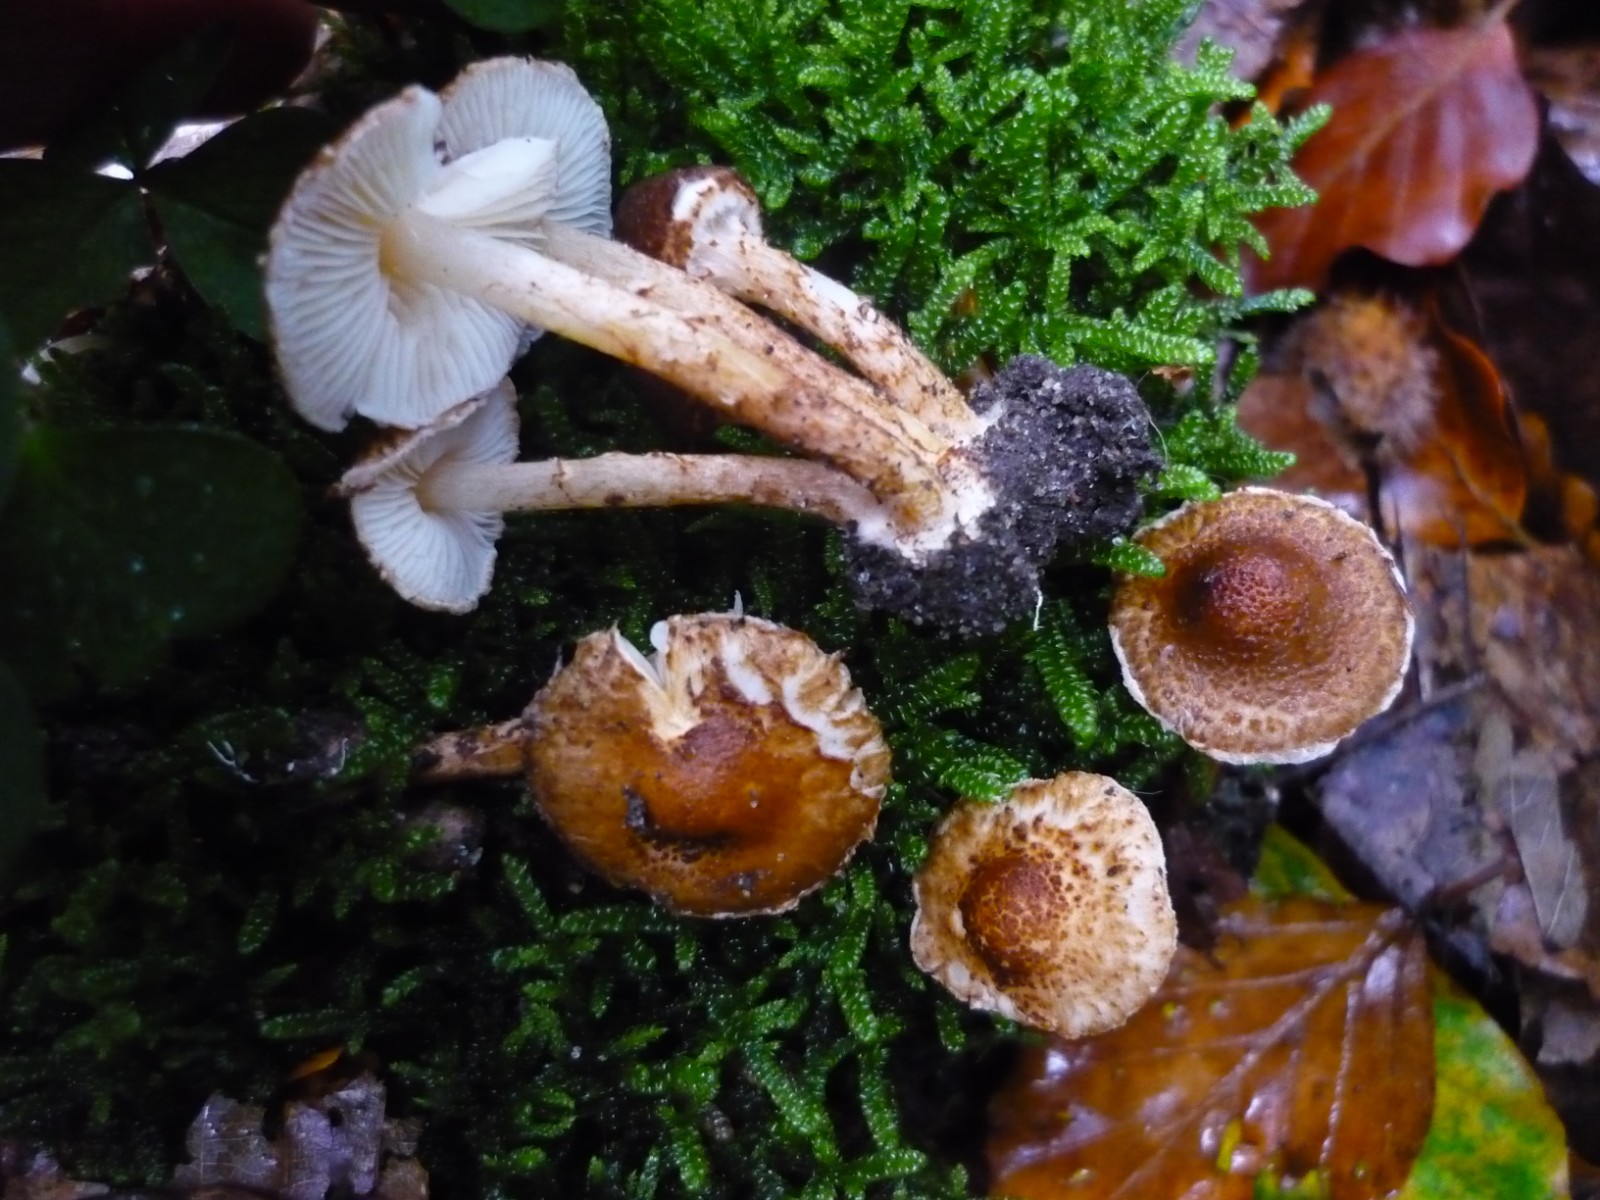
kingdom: Fungi
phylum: Basidiomycota
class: Agaricomycetes
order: Agaricales
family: Agaricaceae
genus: Lepiota
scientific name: Lepiota castanea
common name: kastaniebrun parasolhat
